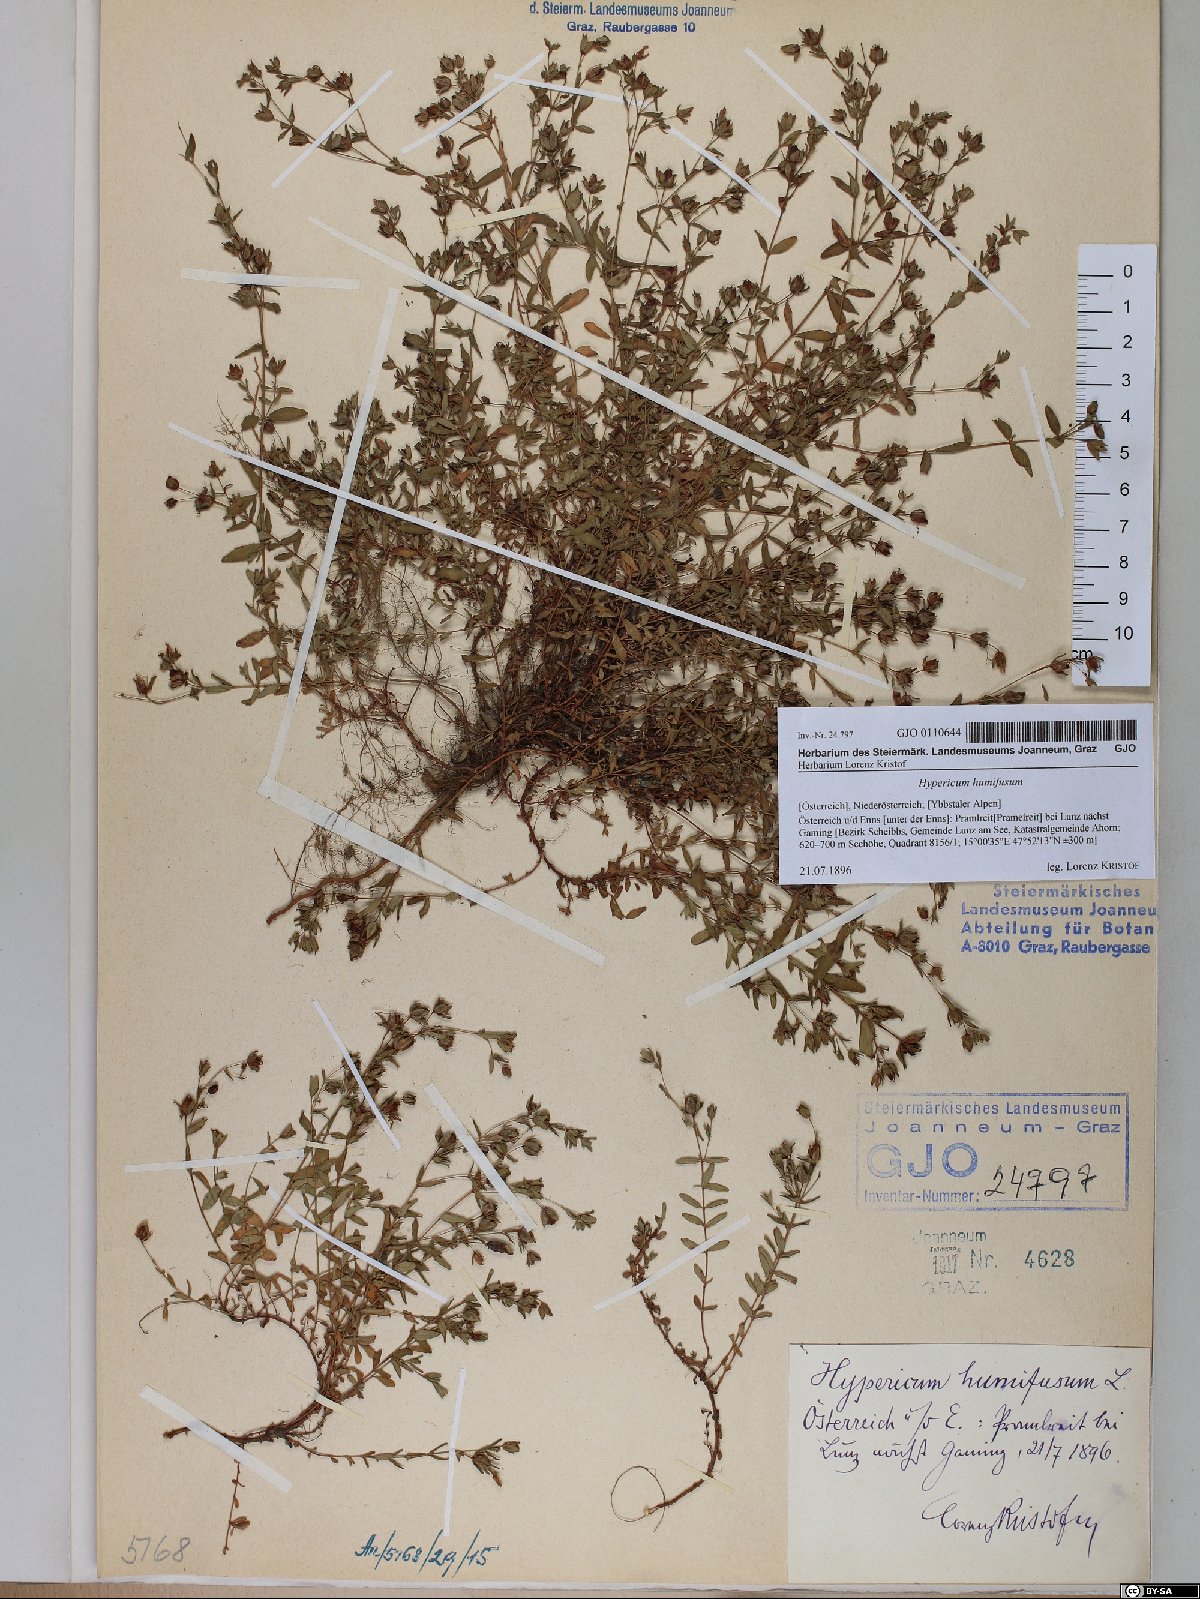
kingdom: Plantae
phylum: Tracheophyta
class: Magnoliopsida
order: Malpighiales
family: Hypericaceae
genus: Hypericum
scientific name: Hypericum humifusum
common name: Trailing st. john's-wort
